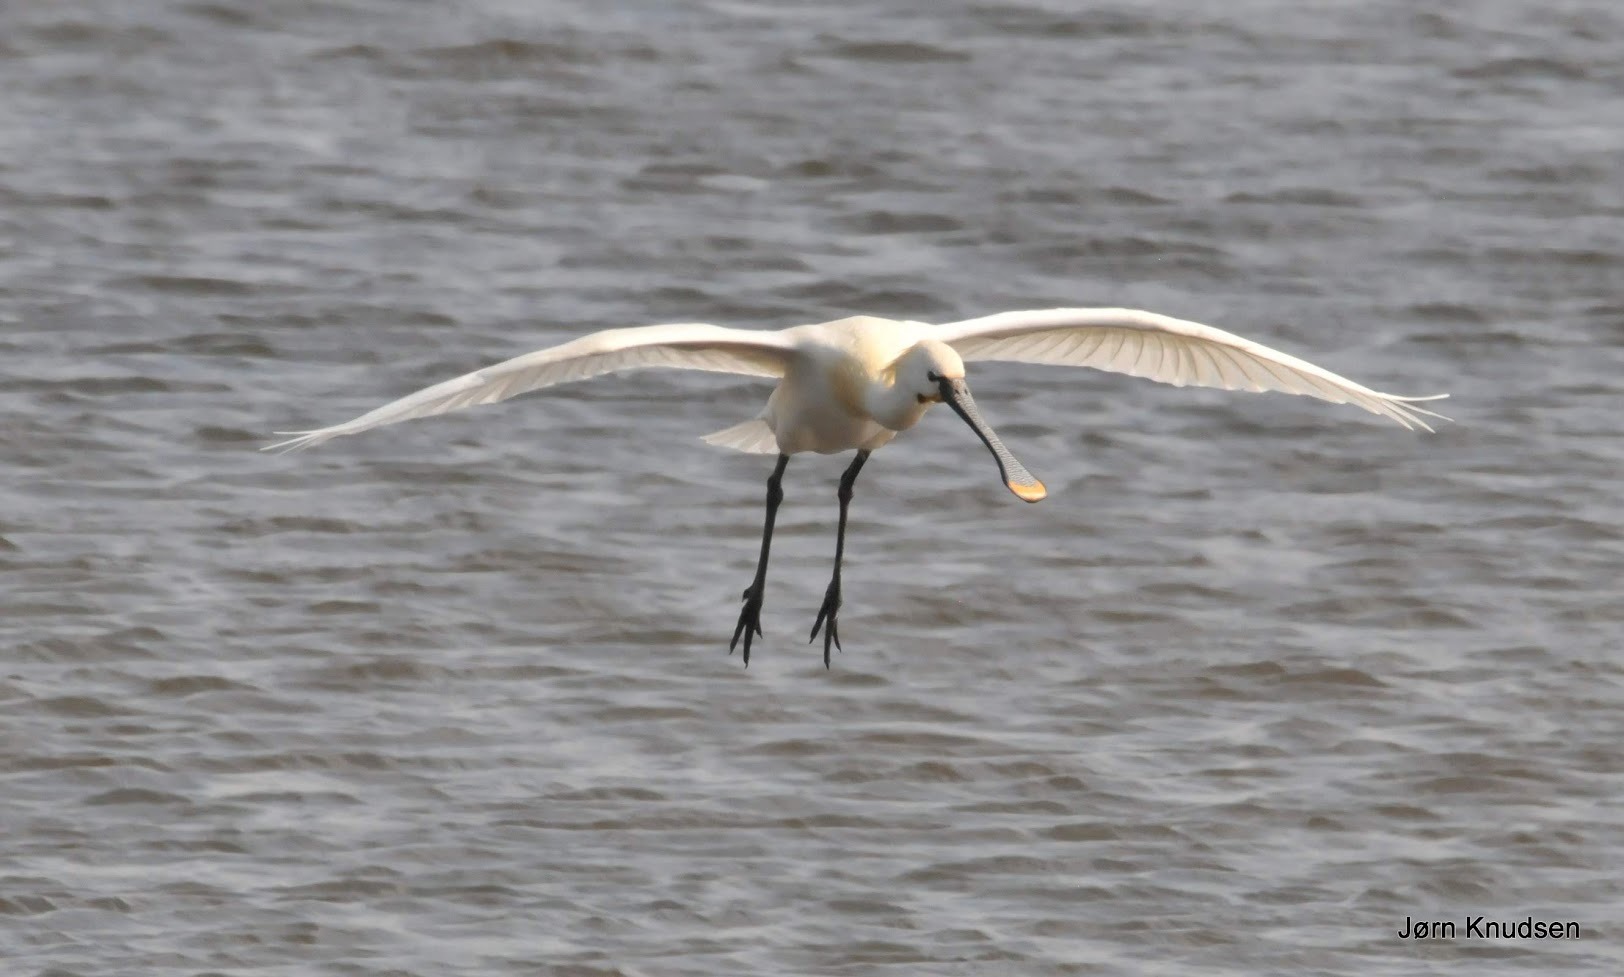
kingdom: Animalia
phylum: Chordata
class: Aves
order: Pelecaniformes
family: Threskiornithidae
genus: Platalea
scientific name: Platalea leucorodia
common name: Skestork
